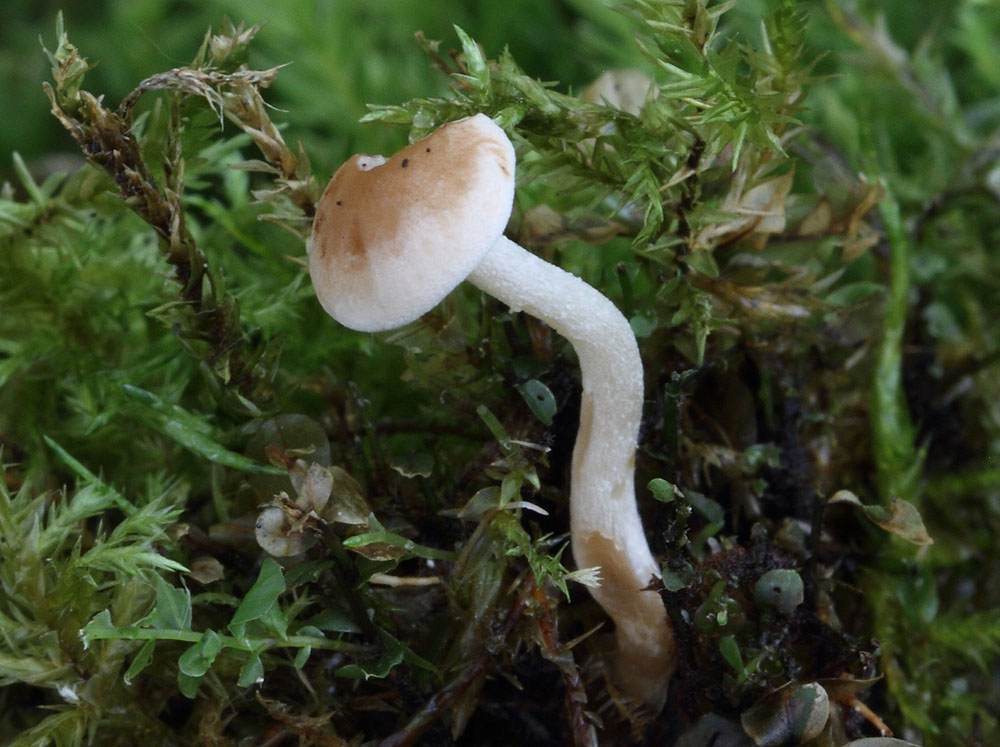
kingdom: Fungi
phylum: Basidiomycota
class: Agaricomycetes
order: Agaricales
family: Hymenogastraceae
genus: Hebeloma
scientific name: Hebeloma pusillum
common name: mose-tåreblad
